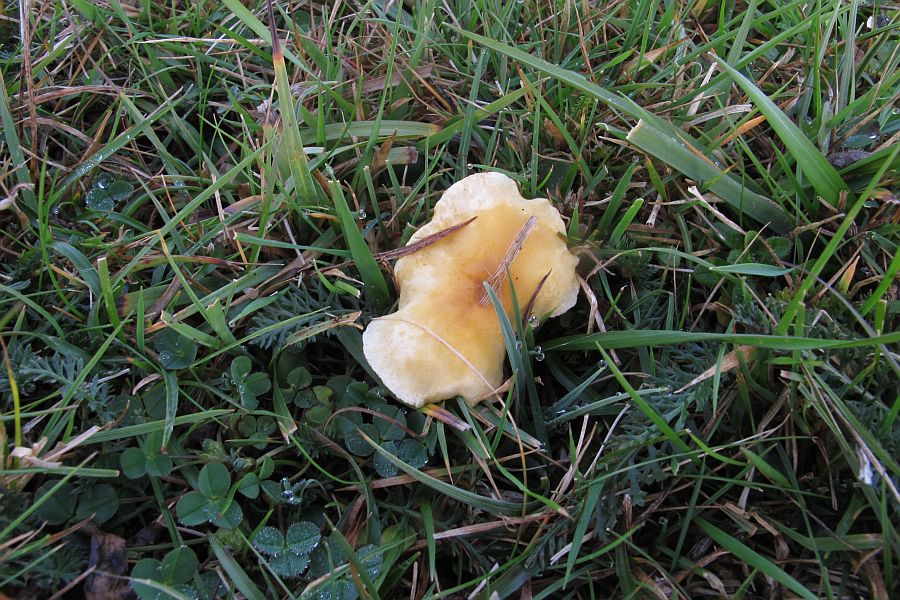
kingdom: Fungi
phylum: Basidiomycota
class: Agaricomycetes
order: Boletales
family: Hygrophoropsidaceae
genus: Hygrophoropsis
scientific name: Hygrophoropsis pallida
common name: bleg orangekantarel
